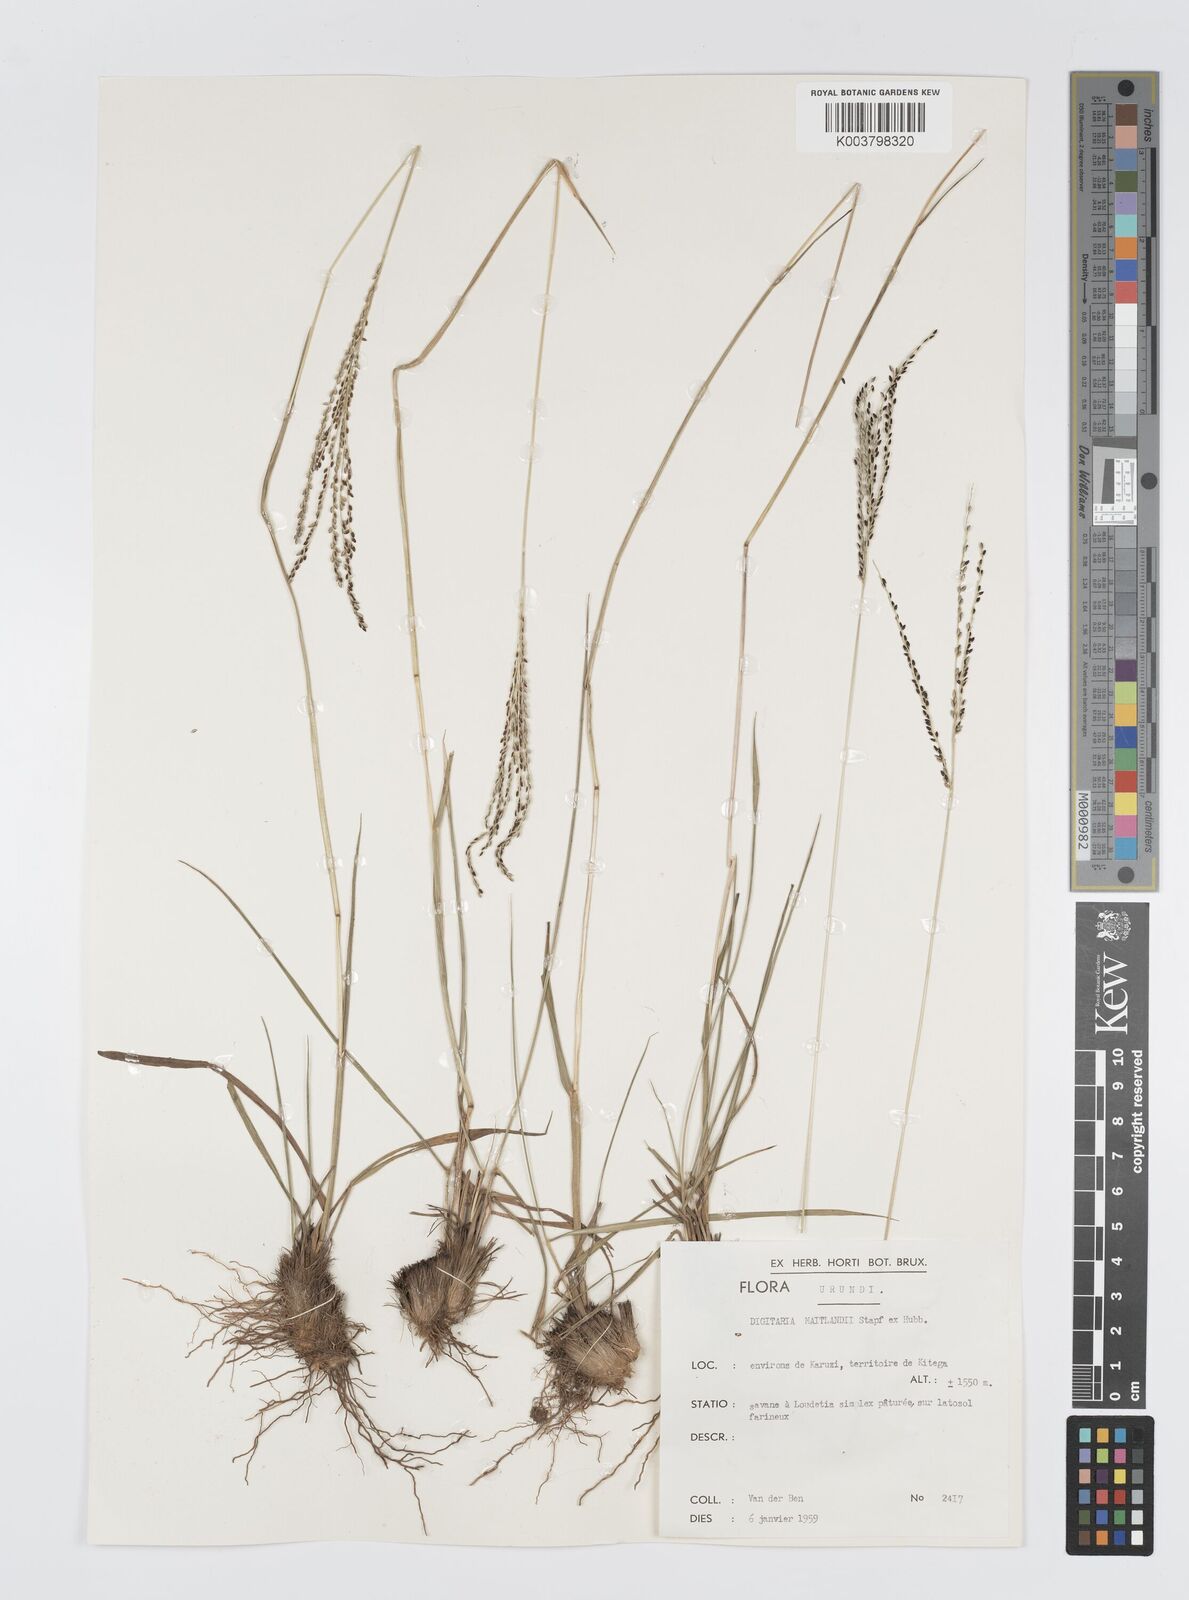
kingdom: Plantae
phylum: Tracheophyta
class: Liliopsida
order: Poales
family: Poaceae
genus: Digitaria
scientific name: Digitaria maitlandii
